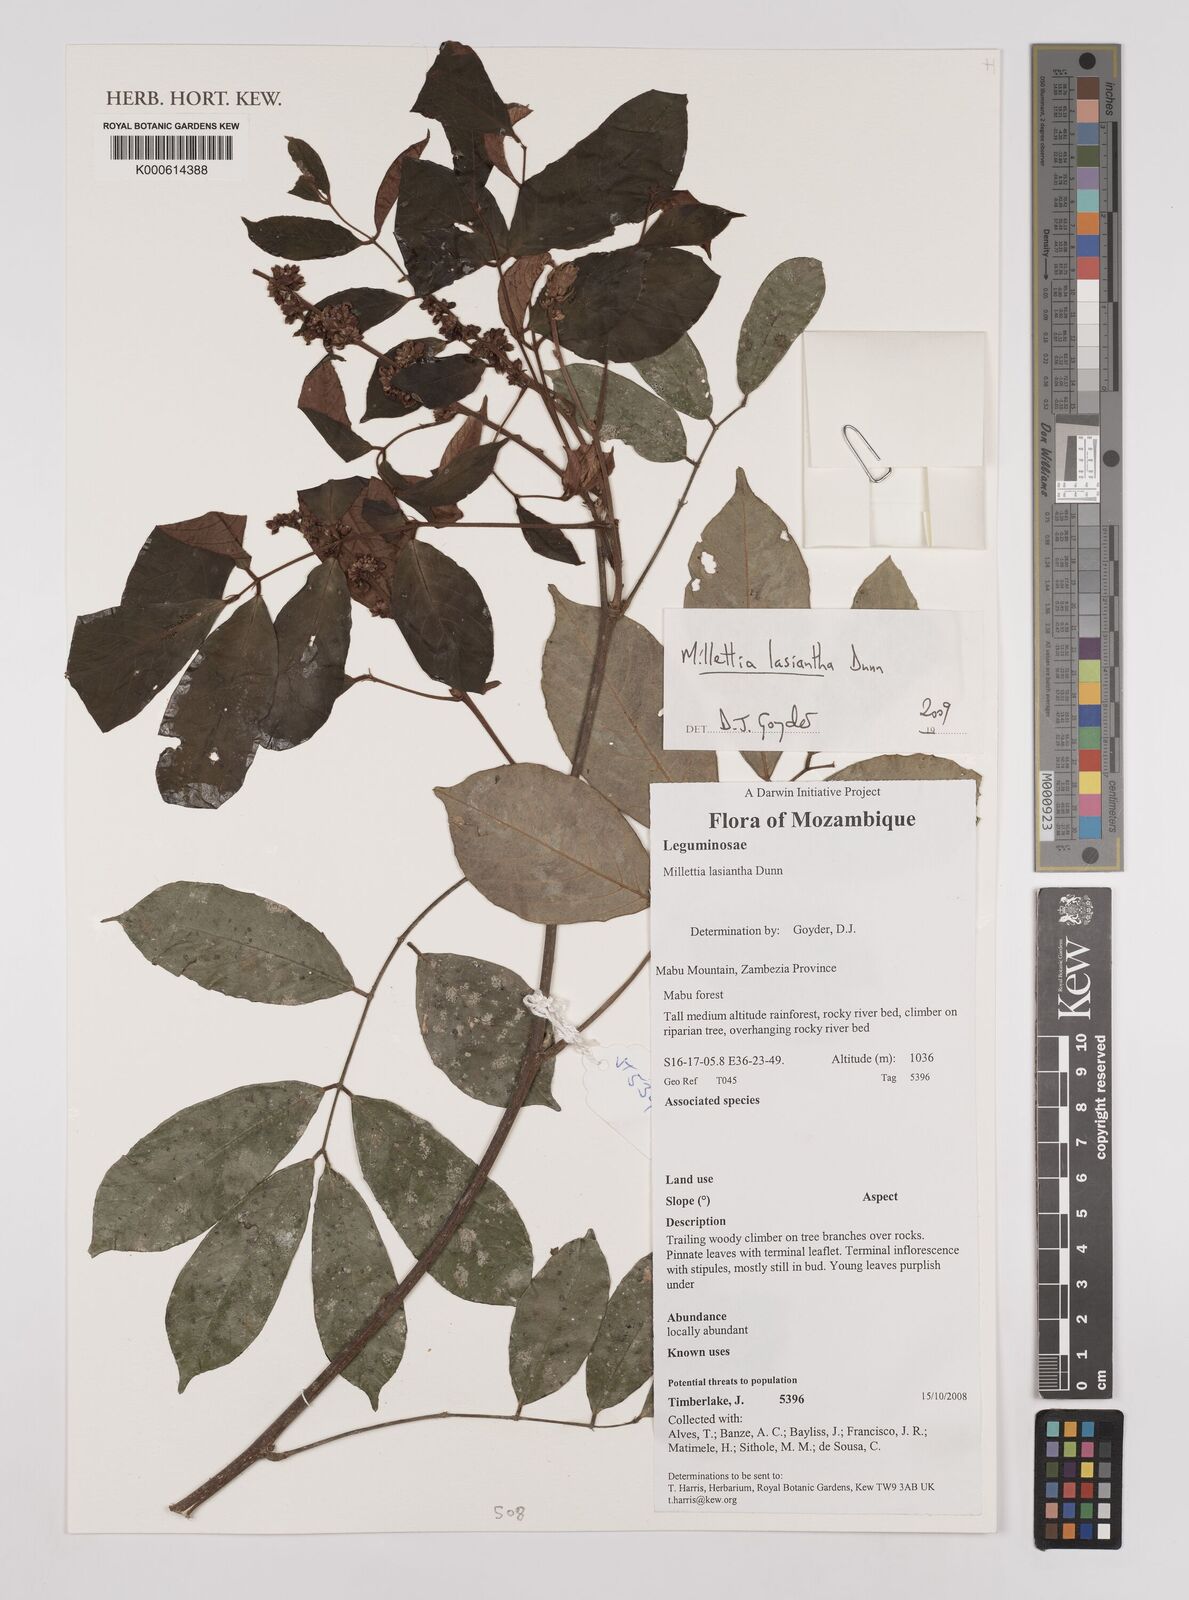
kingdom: Plantae
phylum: Tracheophyta
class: Magnoliopsida
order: Fabales
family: Fabaceae
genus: Millettia
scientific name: Millettia lasiantha
